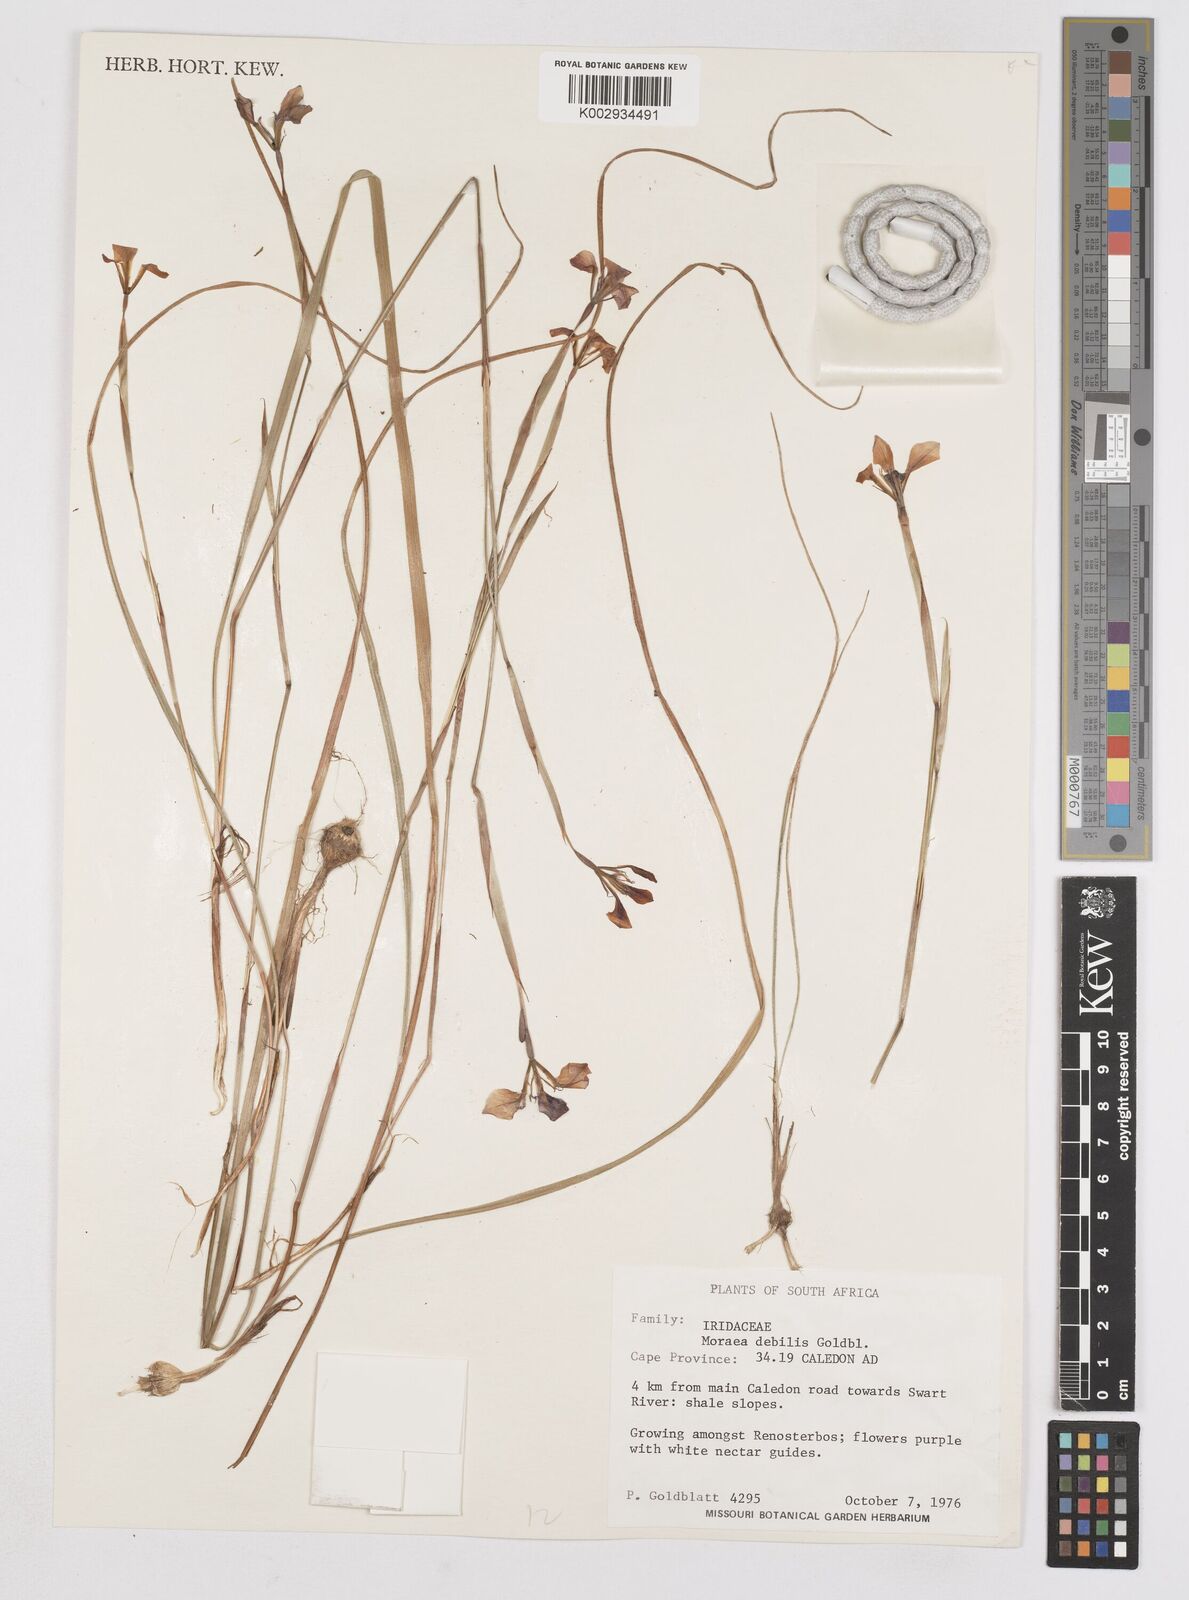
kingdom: Plantae
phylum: Tracheophyta
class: Liliopsida
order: Asparagales
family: Iridaceae
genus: Moraea
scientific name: Moraea debilis
